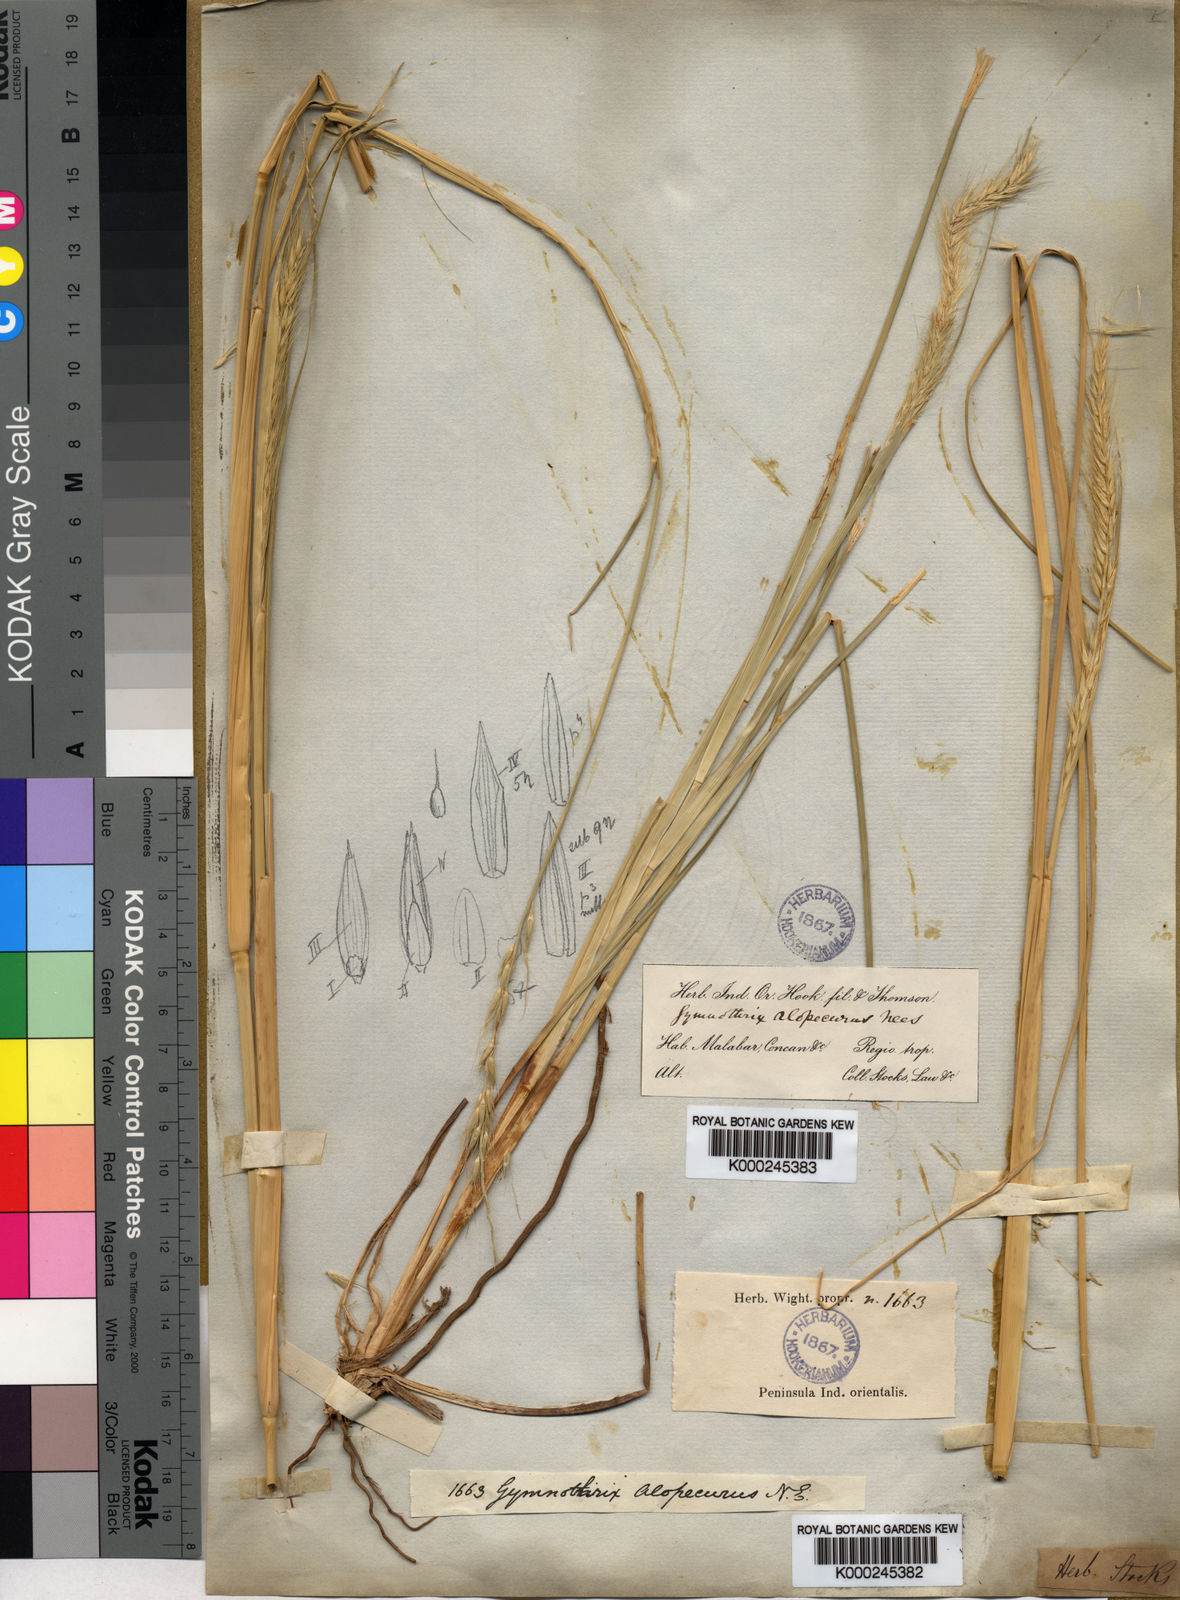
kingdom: Plantae
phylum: Tracheophyta
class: Liliopsida
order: Poales
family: Poaceae
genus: Cenchrus
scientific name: Cenchrus hohenackeri
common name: Moya grass
